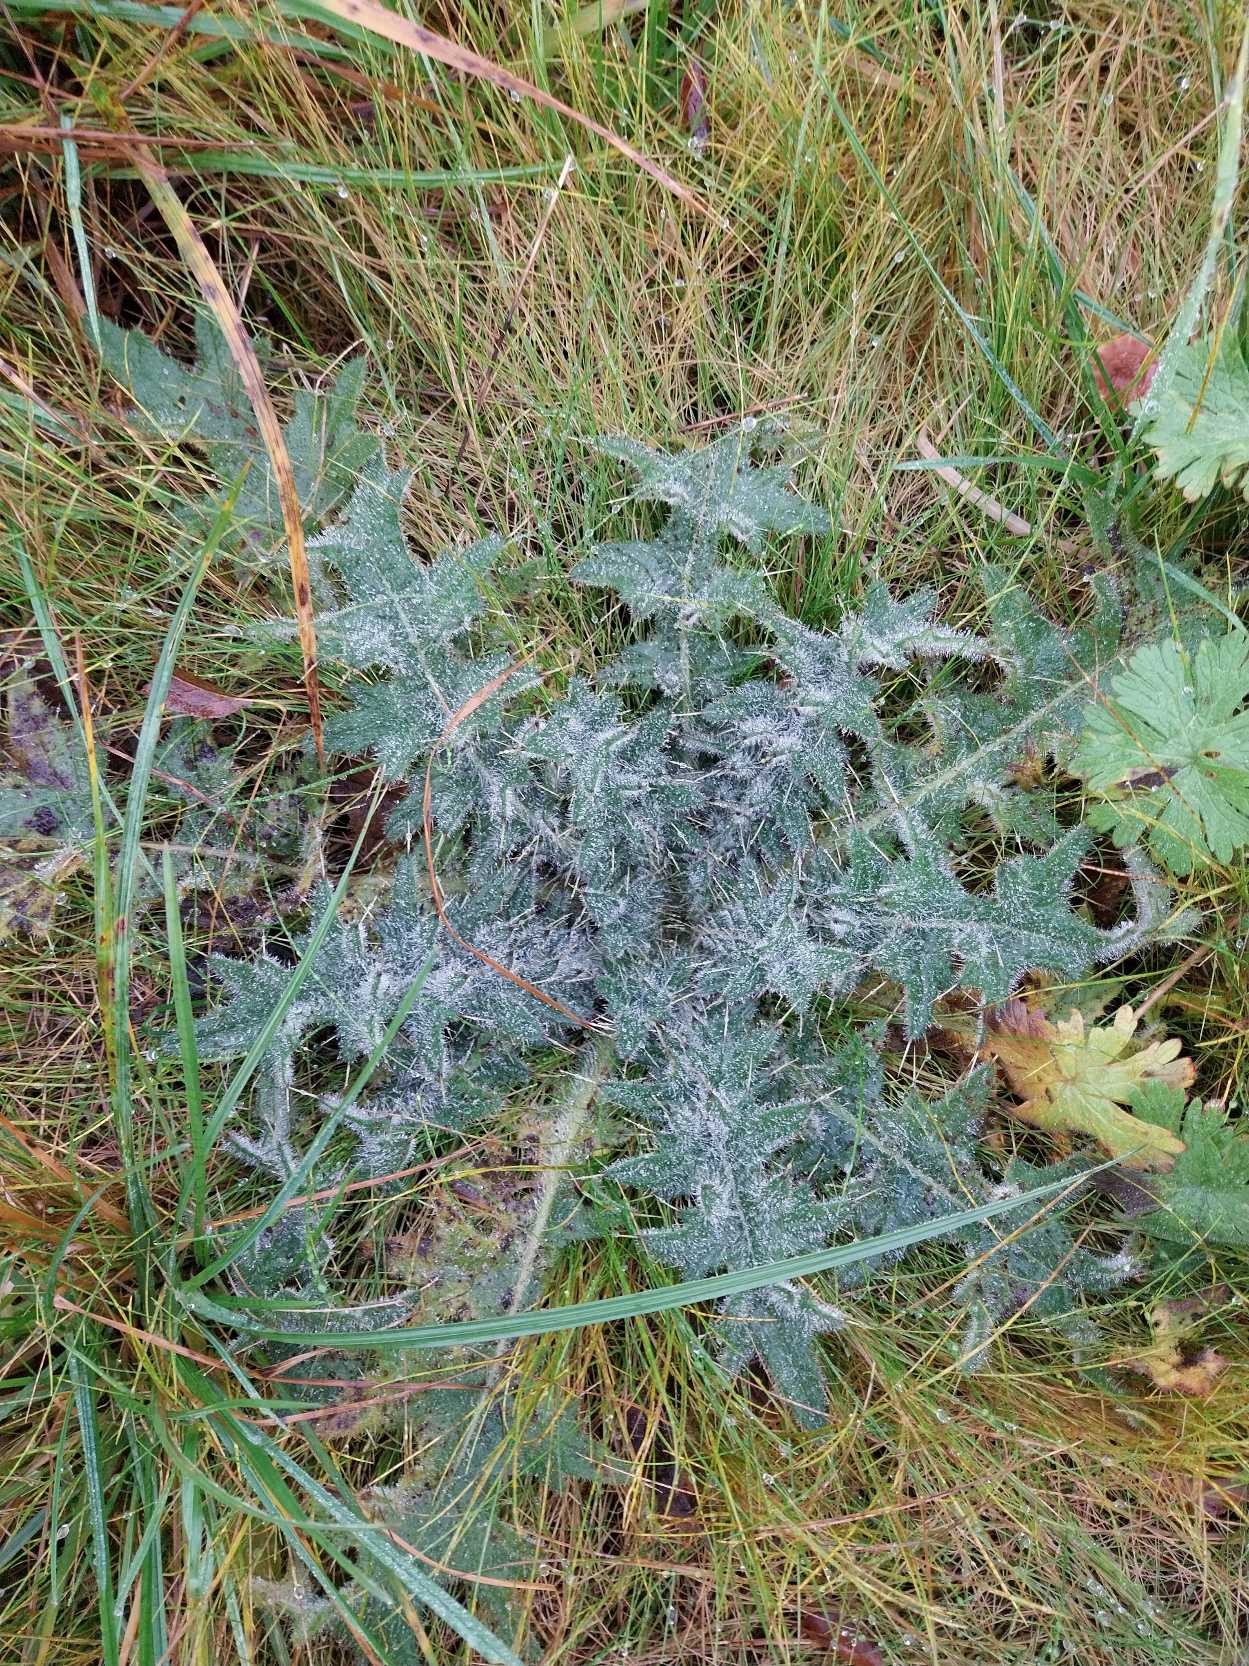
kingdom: Plantae
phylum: Tracheophyta
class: Magnoliopsida
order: Asterales
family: Asteraceae
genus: Cirsium
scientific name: Cirsium vulgare
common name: Horse-tidsel
